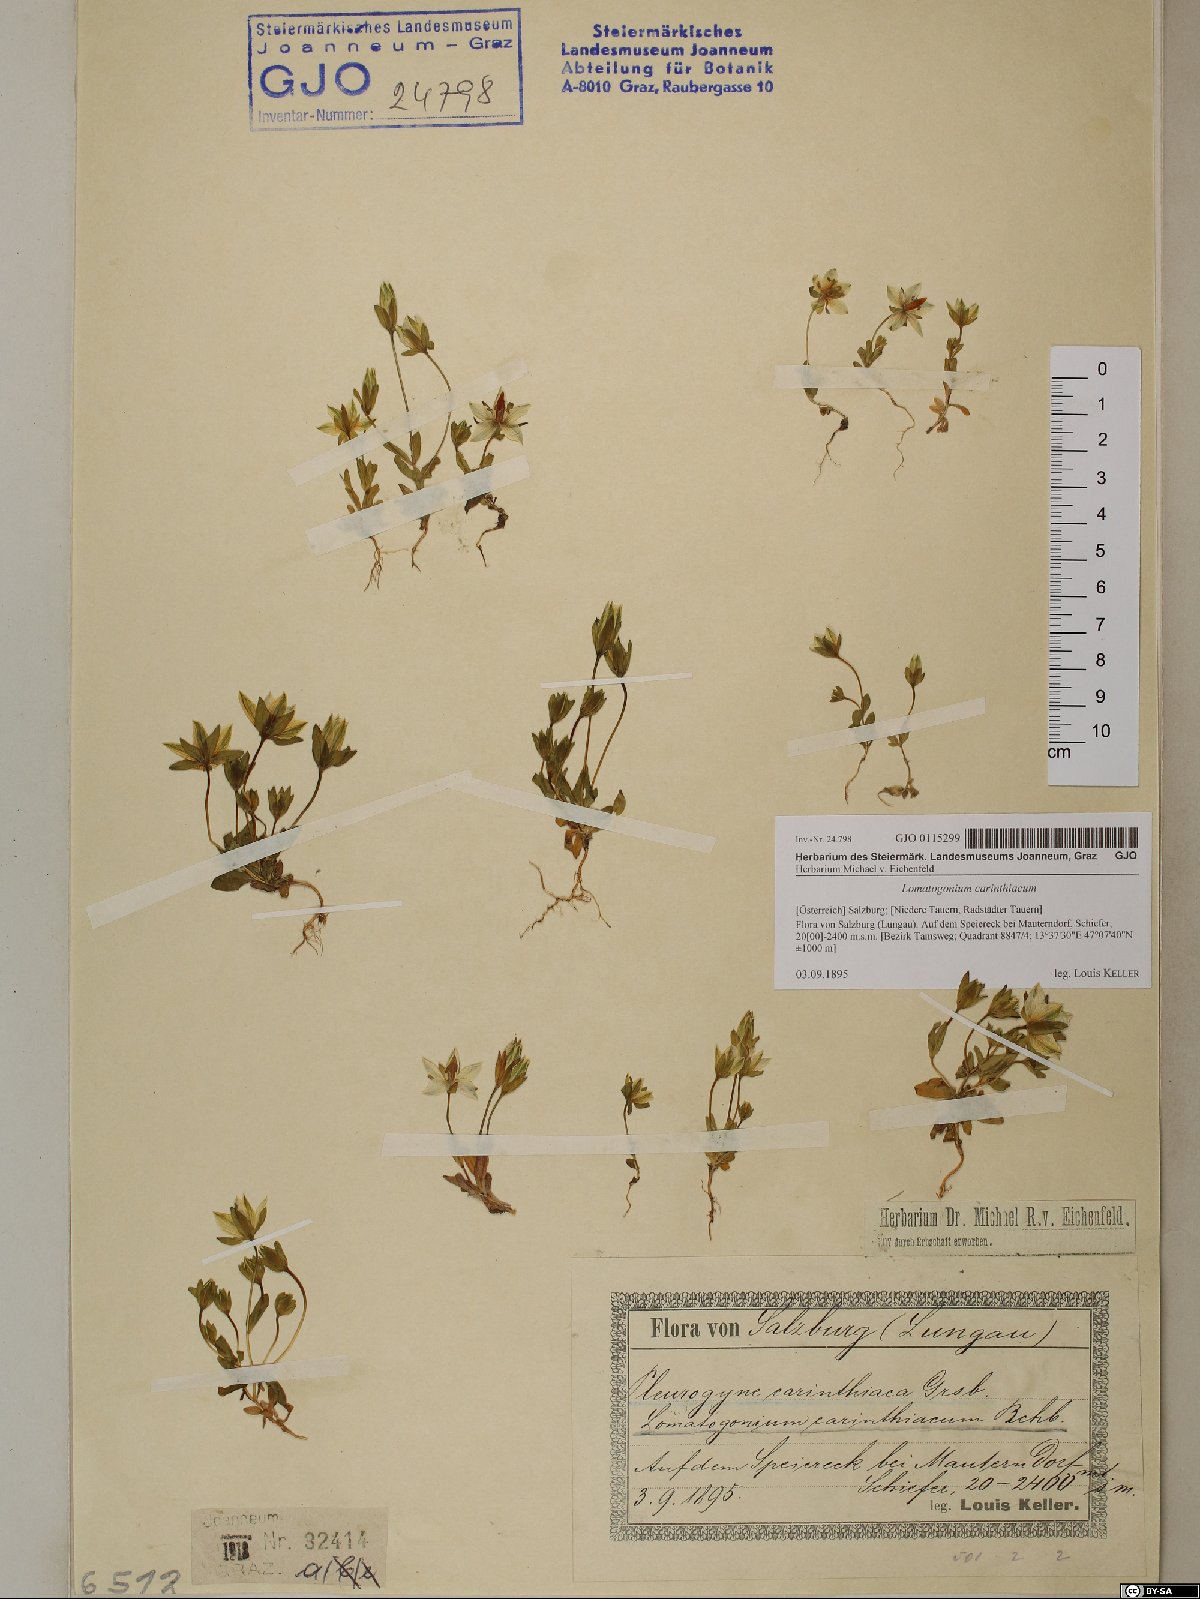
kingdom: Plantae
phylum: Tracheophyta
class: Magnoliopsida
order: Gentianales
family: Gentianaceae
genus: Lomatogonium
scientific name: Lomatogonium carinthiacum
